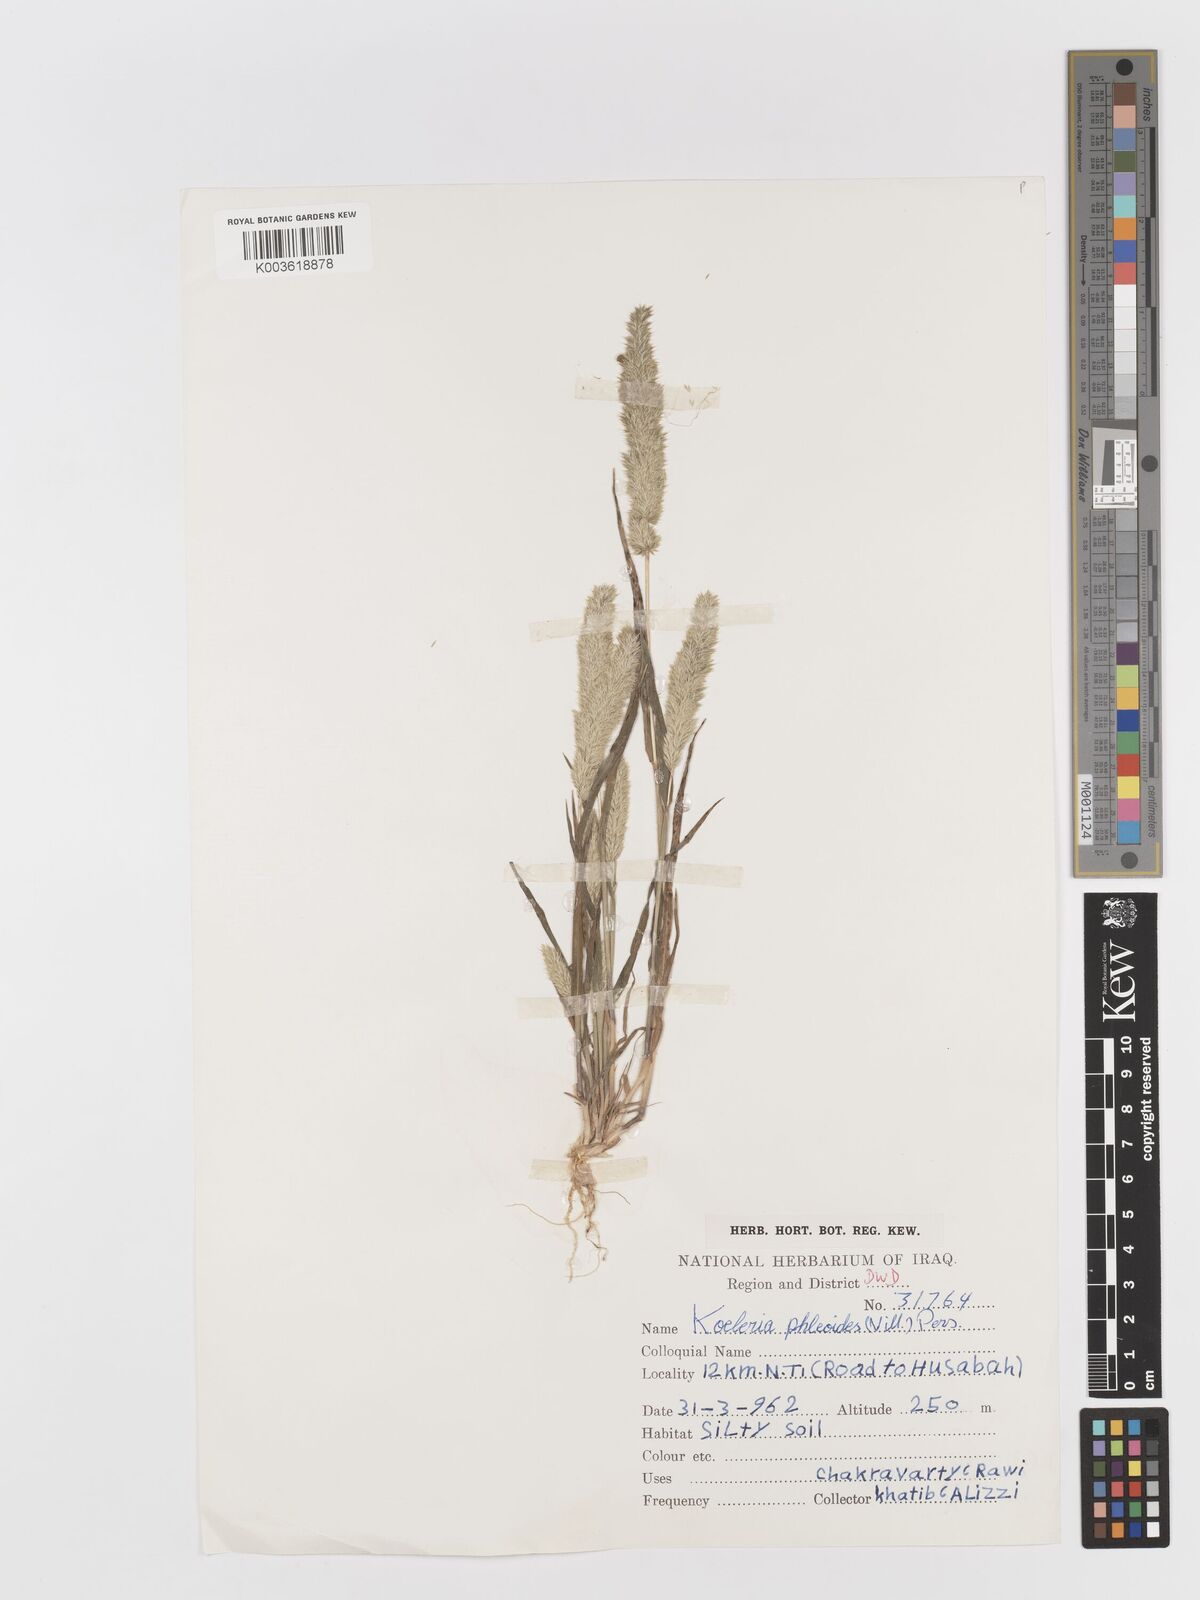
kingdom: Plantae
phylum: Tracheophyta
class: Liliopsida
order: Poales
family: Poaceae
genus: Rostraria
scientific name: Rostraria cristata
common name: Mediterranean hair-grass
